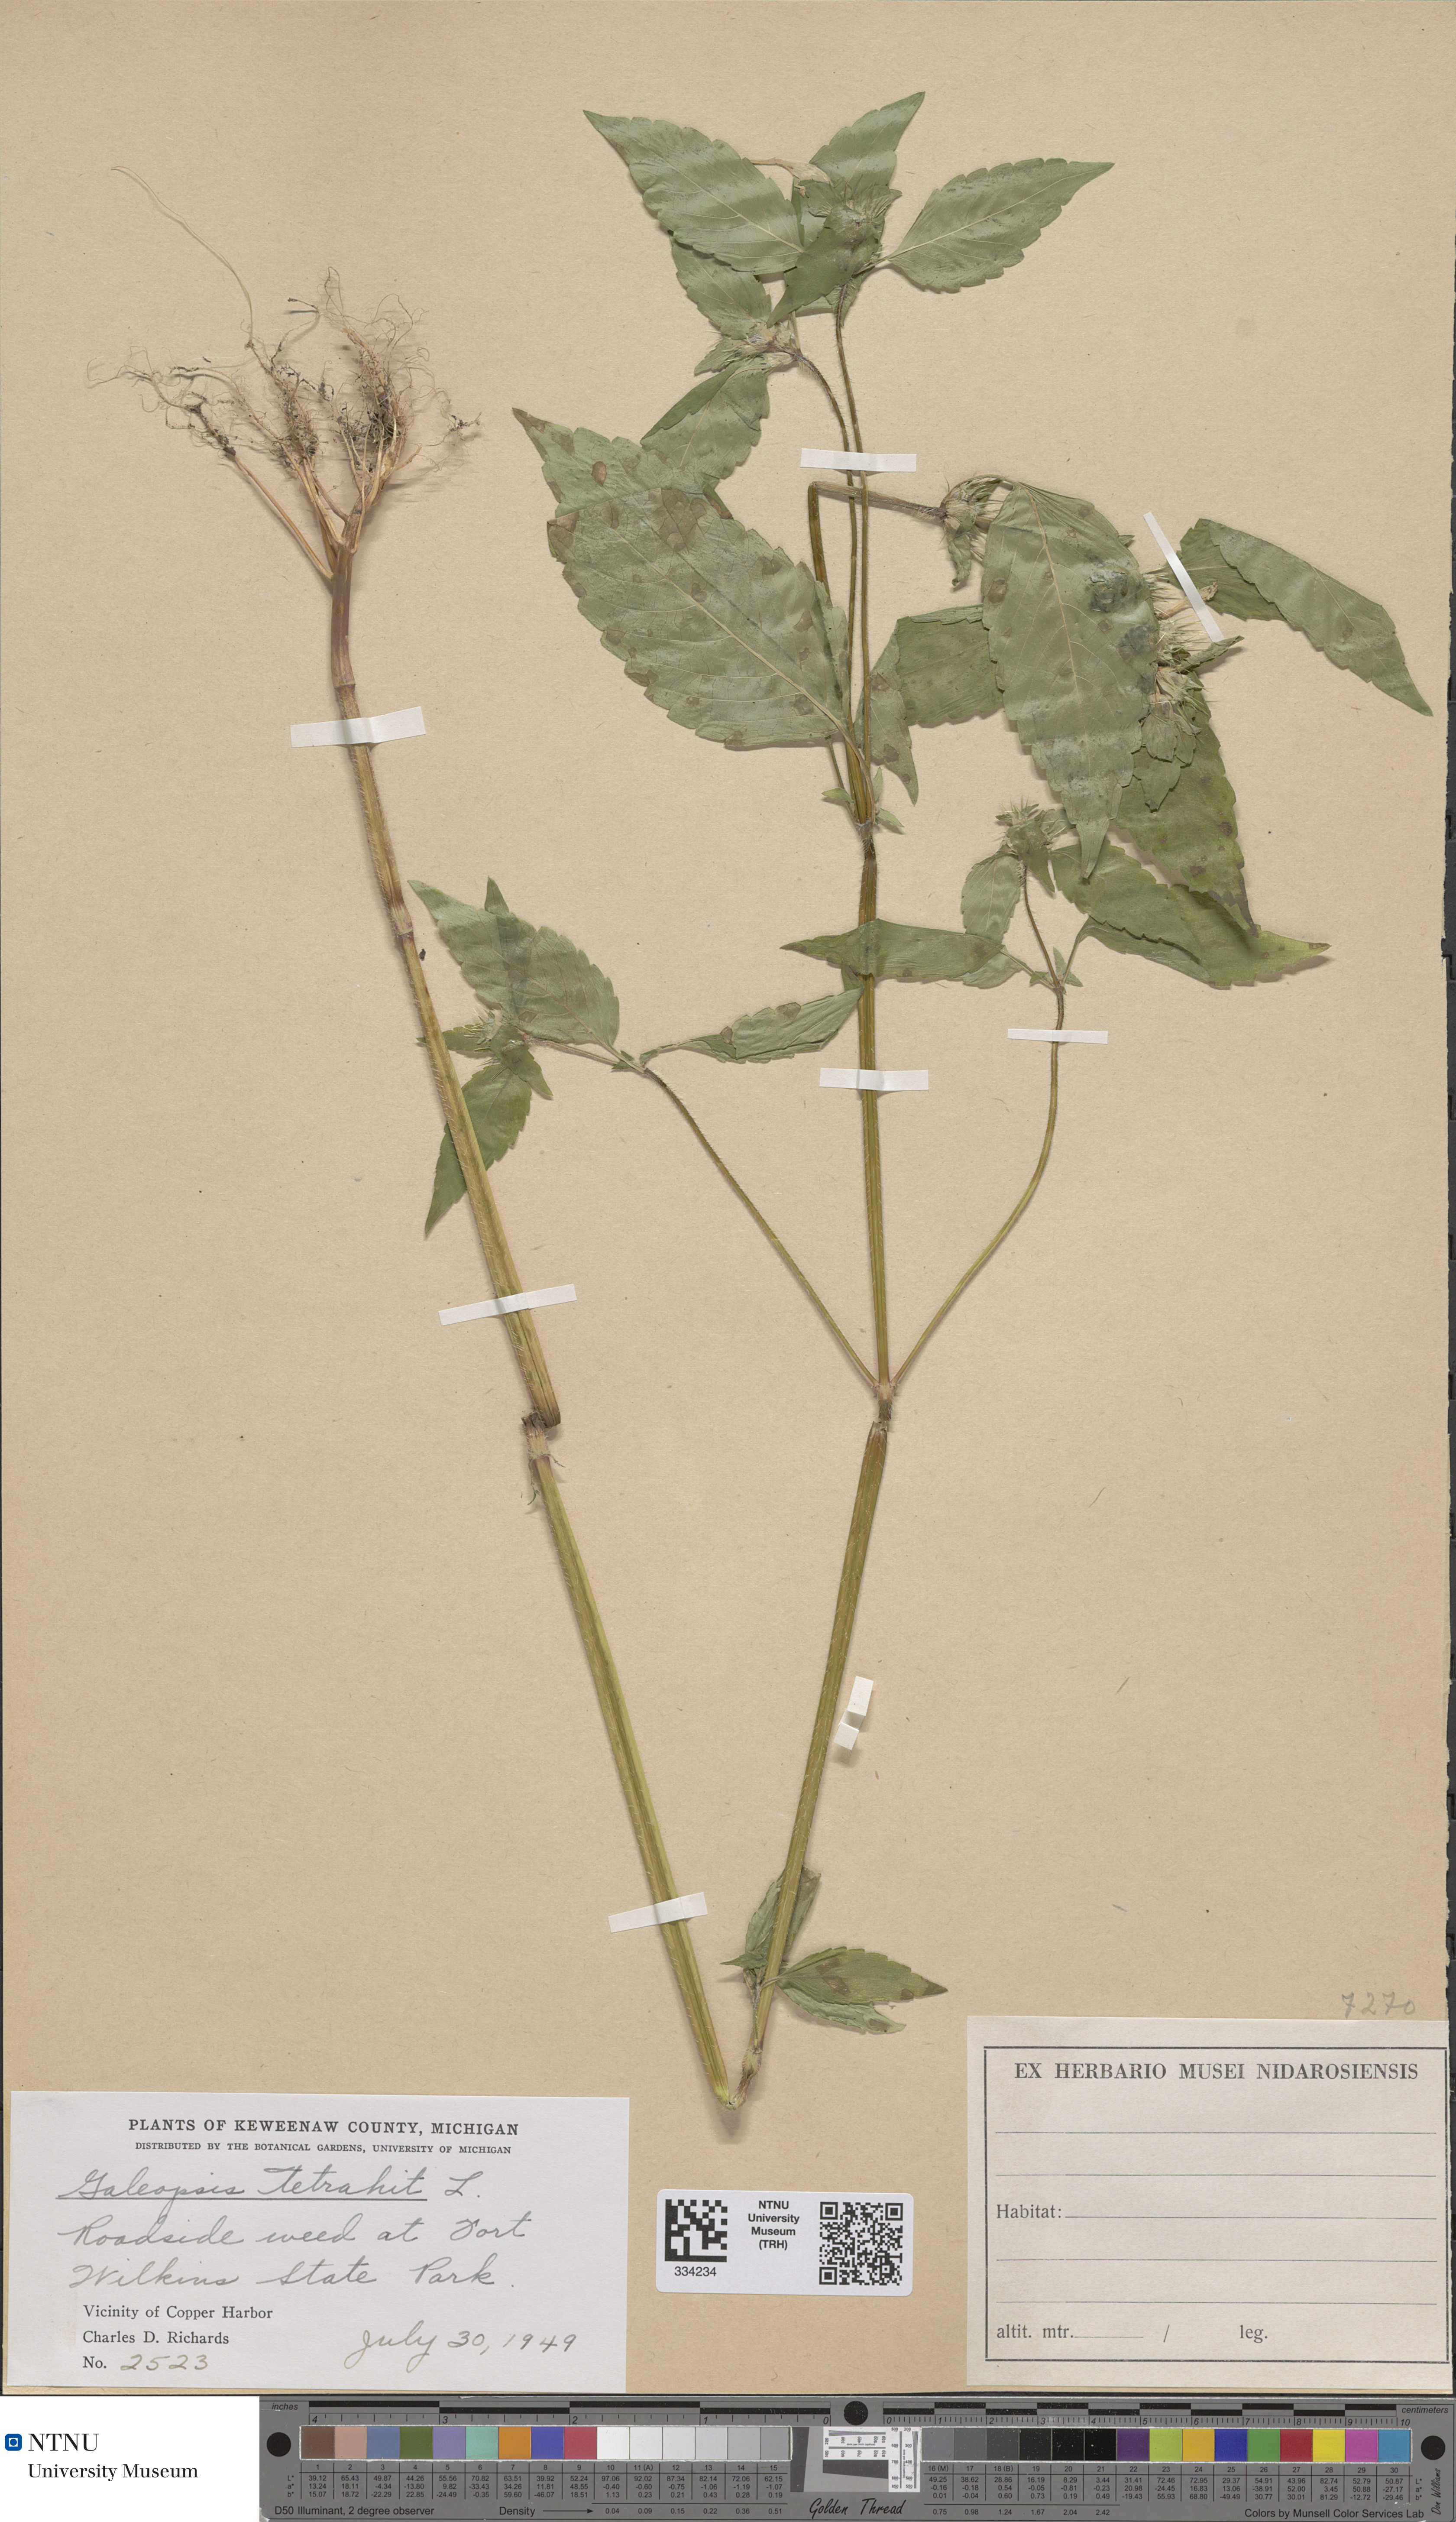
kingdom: Plantae
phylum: Tracheophyta
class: Magnoliopsida
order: Lamiales
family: Lamiaceae
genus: Galeopsis
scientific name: Galeopsis tetrahit
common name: Common hemp-nettle
